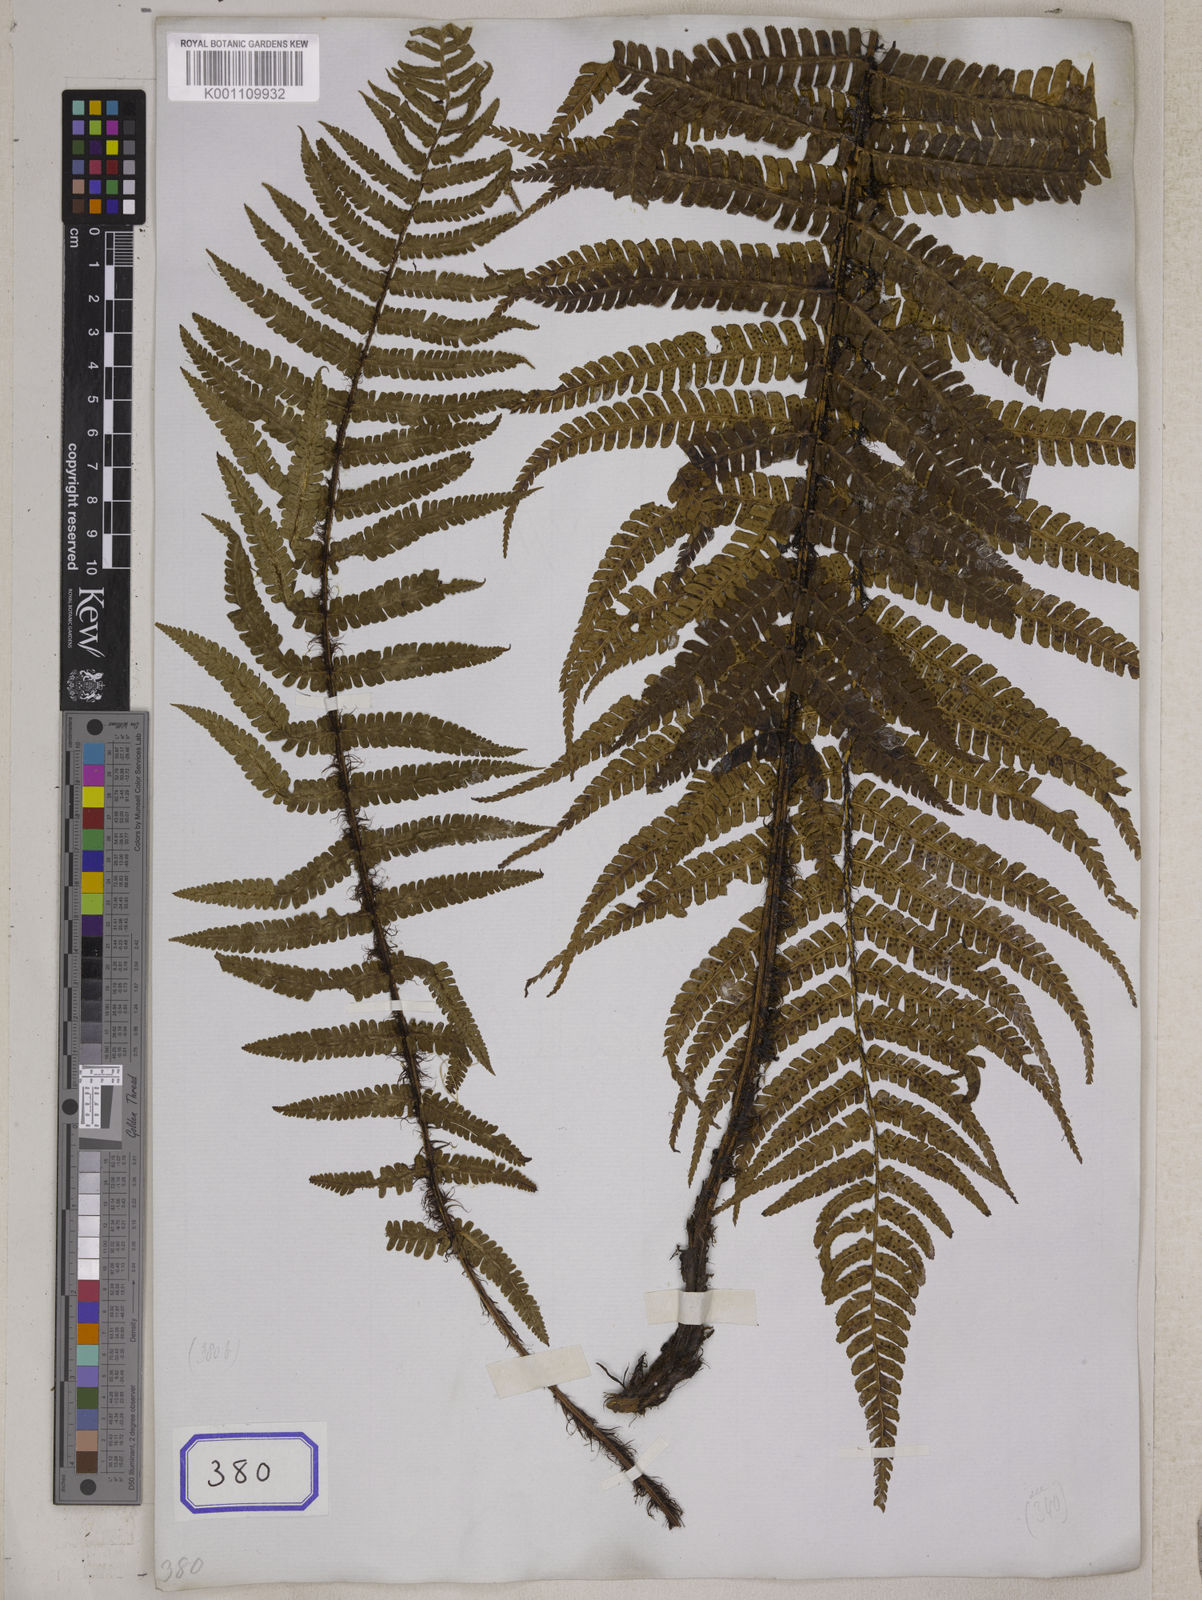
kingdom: Plantae
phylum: Tracheophyta
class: Polypodiopsida
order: Polypodiales
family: Tectariaceae
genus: Tectaria
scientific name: Tectaria Aspidium spec
